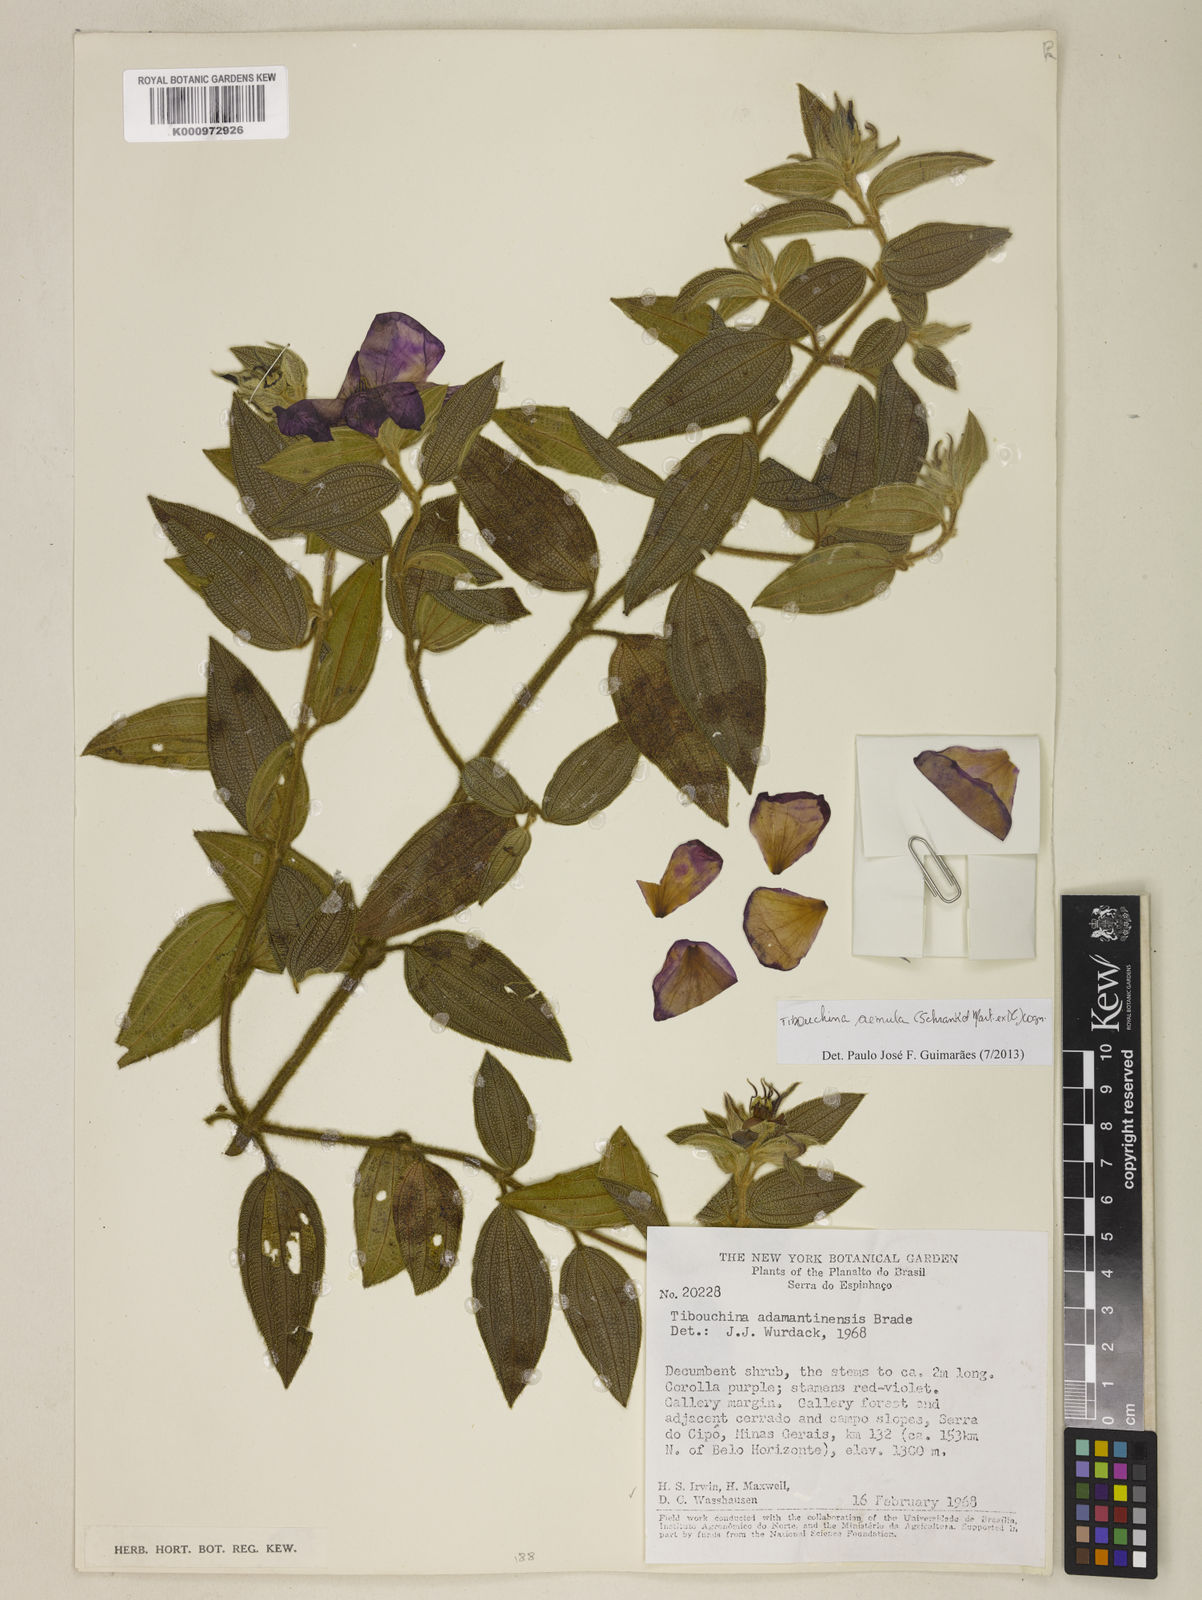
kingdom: Plantae
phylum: Tracheophyta
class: Magnoliopsida
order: Myrtales
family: Melastomataceae
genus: Pleroma
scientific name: Pleroma aemula
